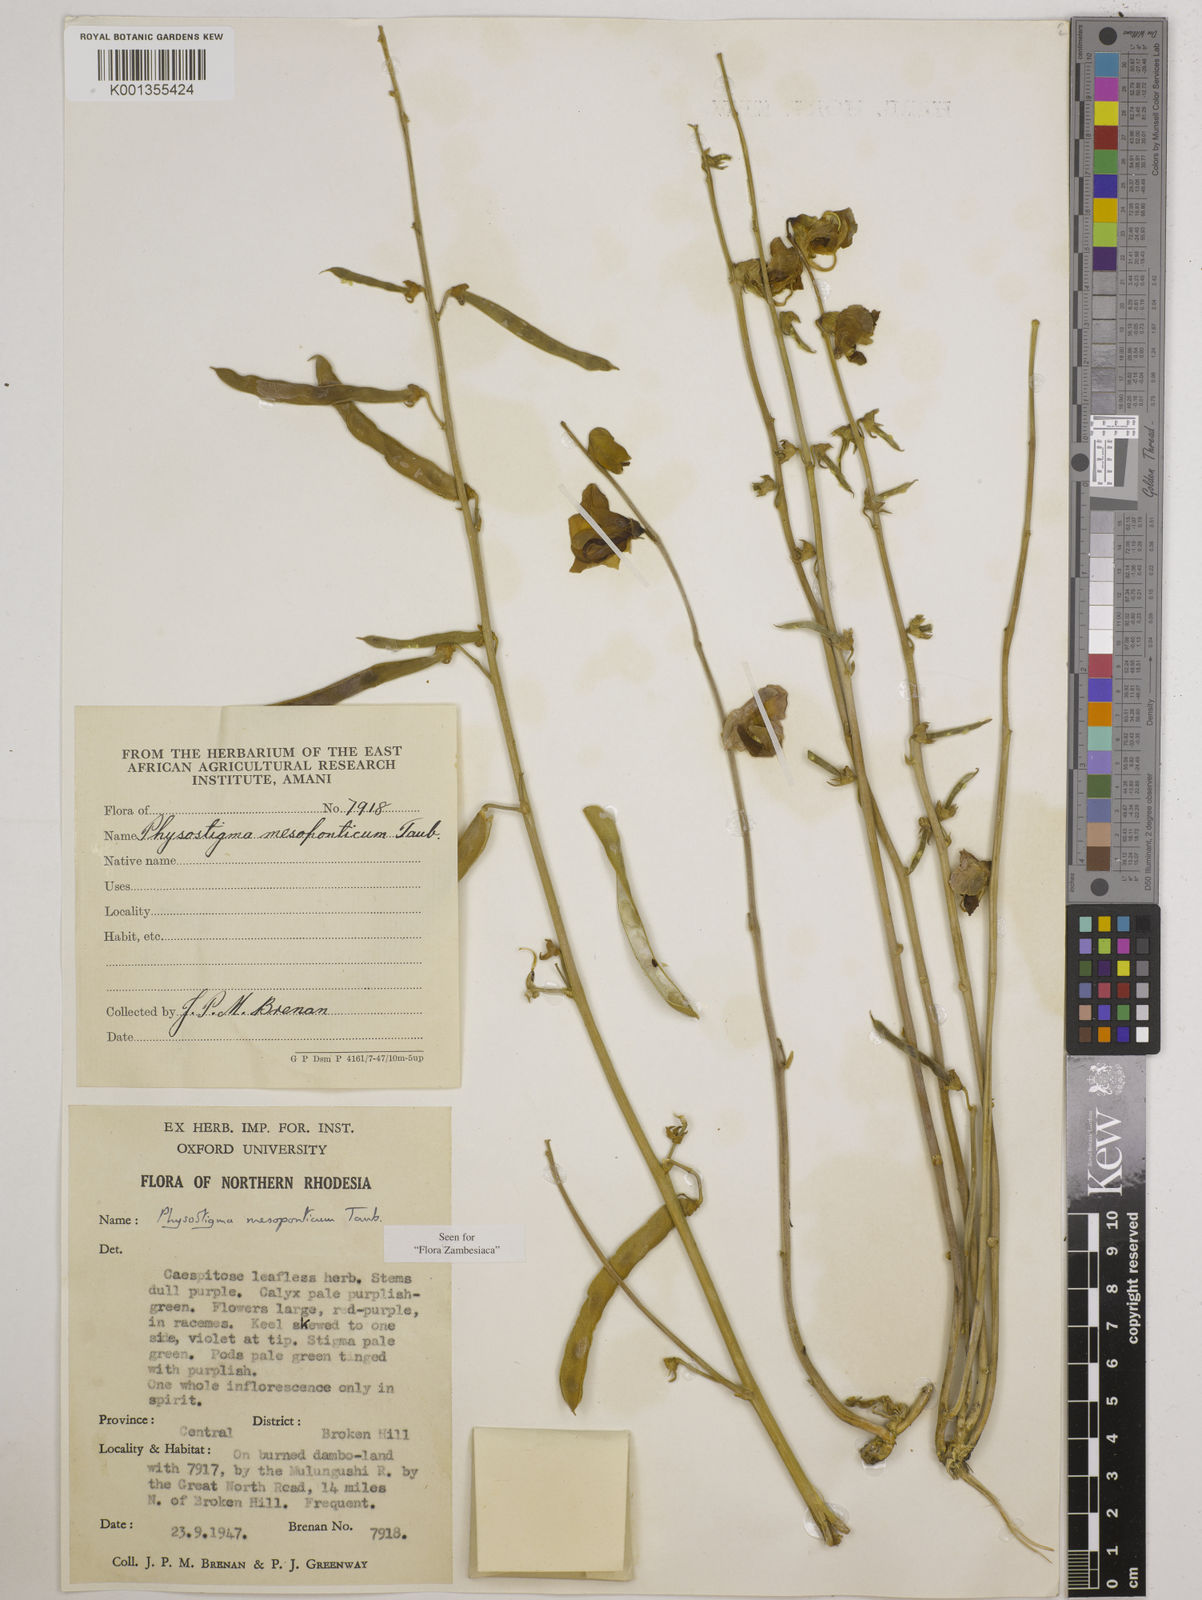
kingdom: Plantae
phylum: Tracheophyta
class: Magnoliopsida
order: Fabales
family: Fabaceae
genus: Physostigma
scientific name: Physostigma mesoponticum
